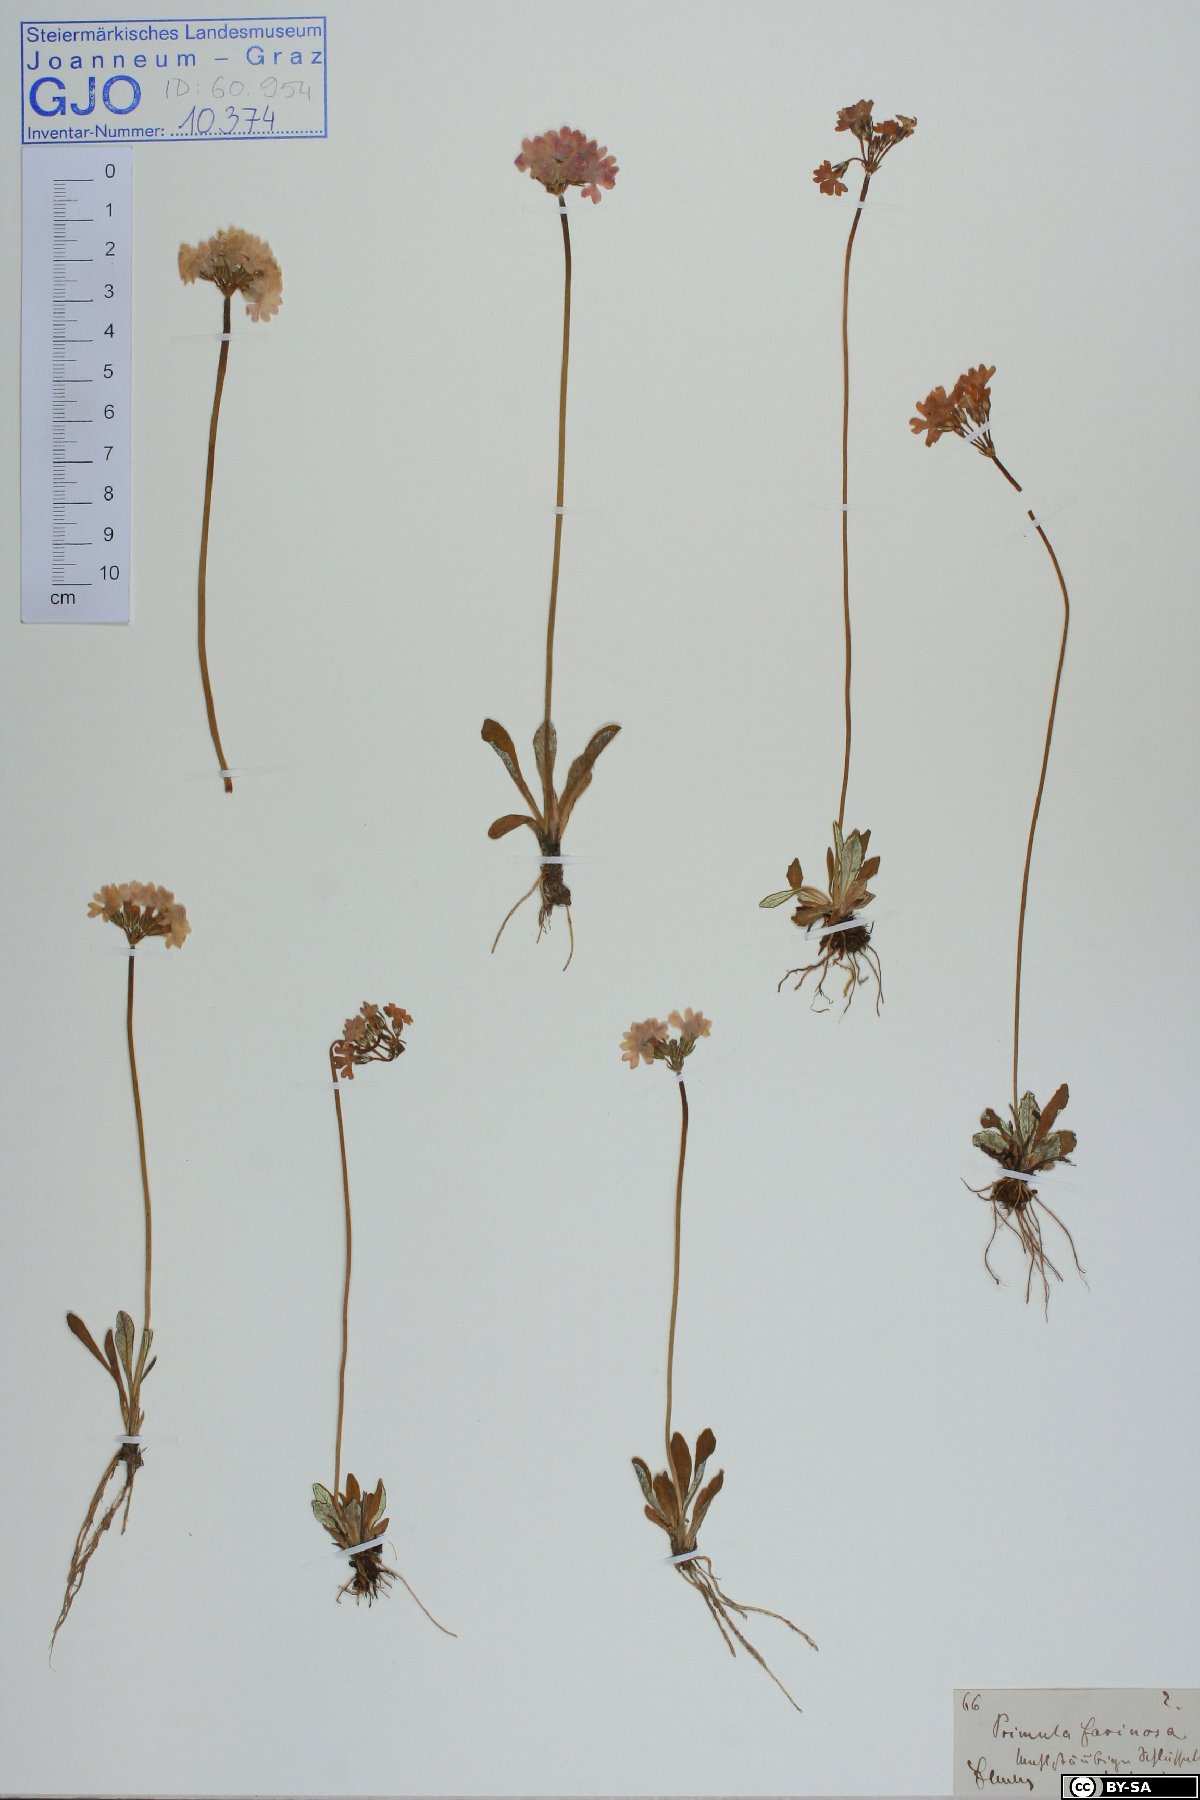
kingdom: Plantae
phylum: Tracheophyta
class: Magnoliopsida
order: Ericales
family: Primulaceae
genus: Primula
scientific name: Primula farinosa
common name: Bird's-eye primrose
